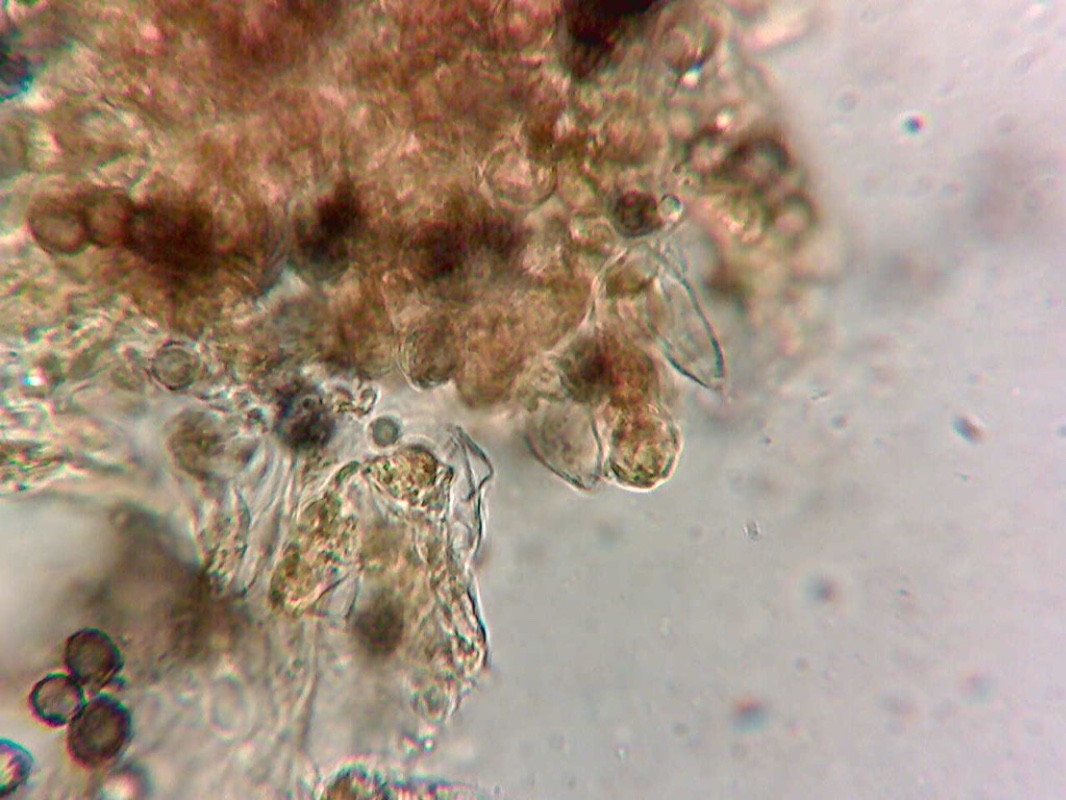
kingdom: Fungi
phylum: Basidiomycota
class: Agaricomycetes
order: Russulales
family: Russulaceae
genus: Russula
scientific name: Russula
